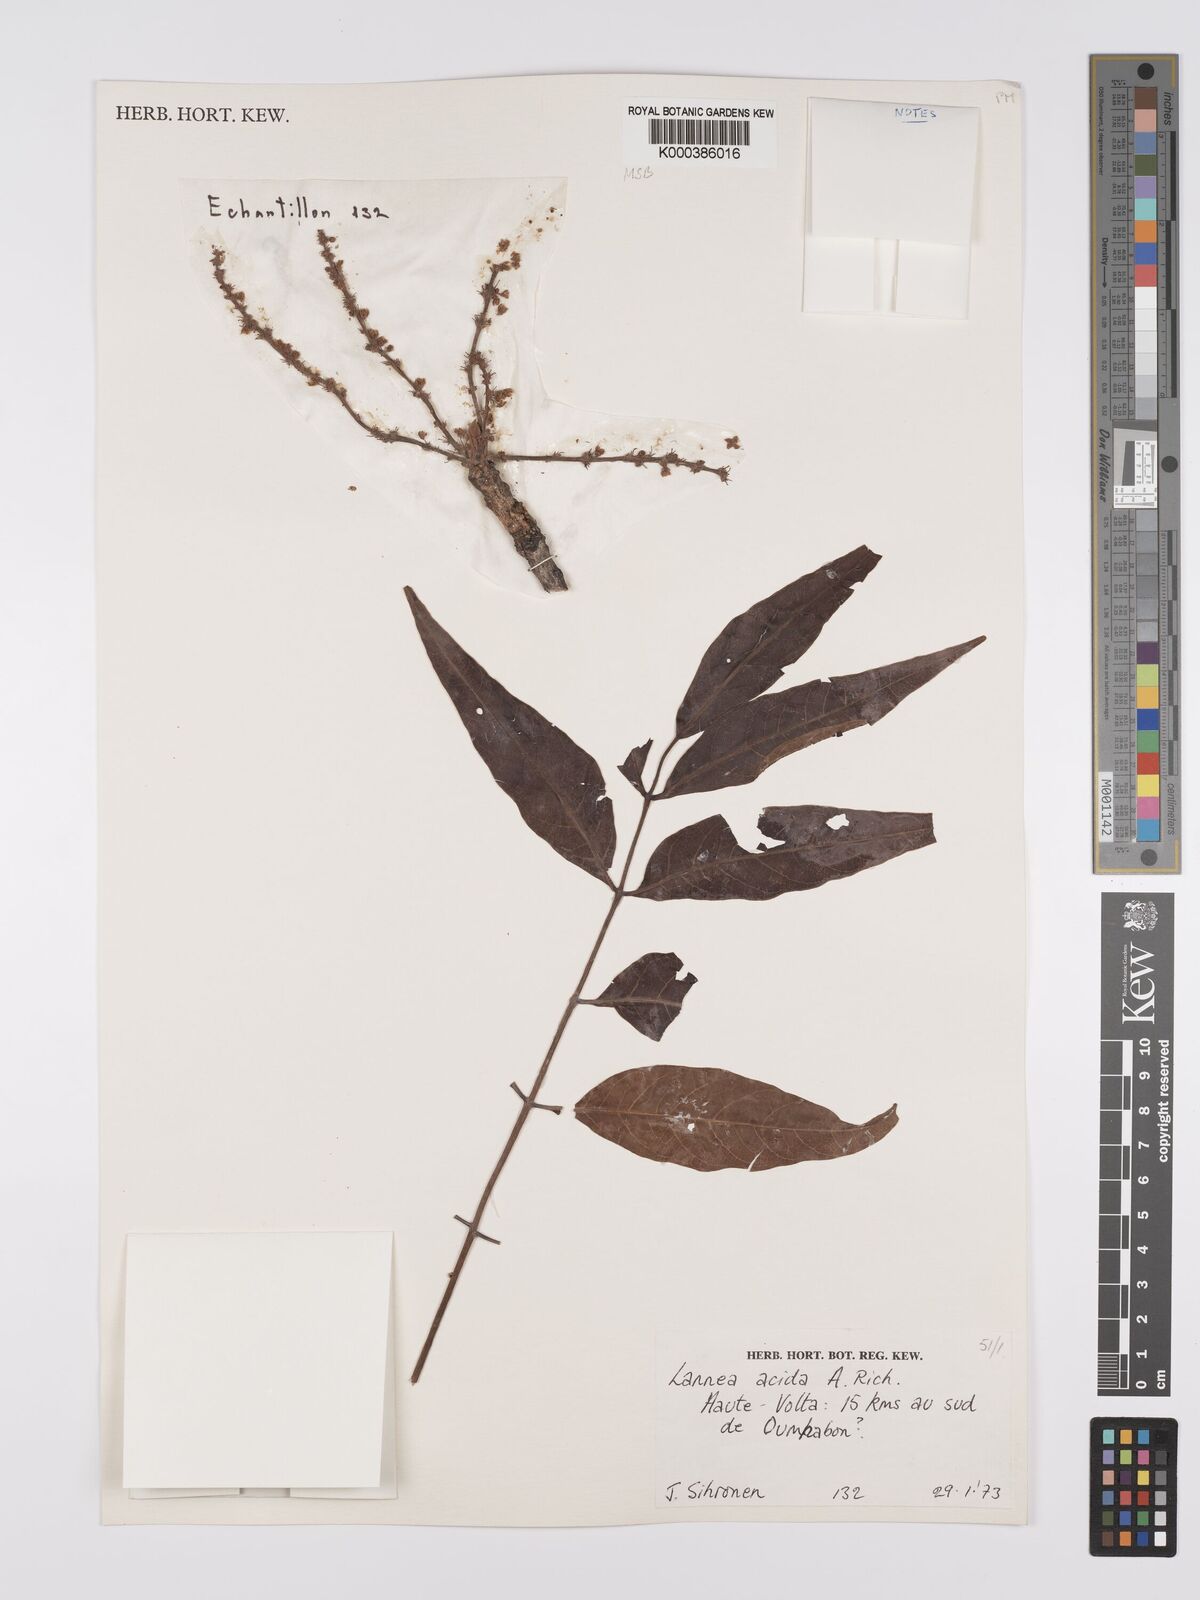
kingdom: Plantae
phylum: Tracheophyta
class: Magnoliopsida
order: Sapindales
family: Anacardiaceae
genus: Lannea
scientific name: Lannea acida
